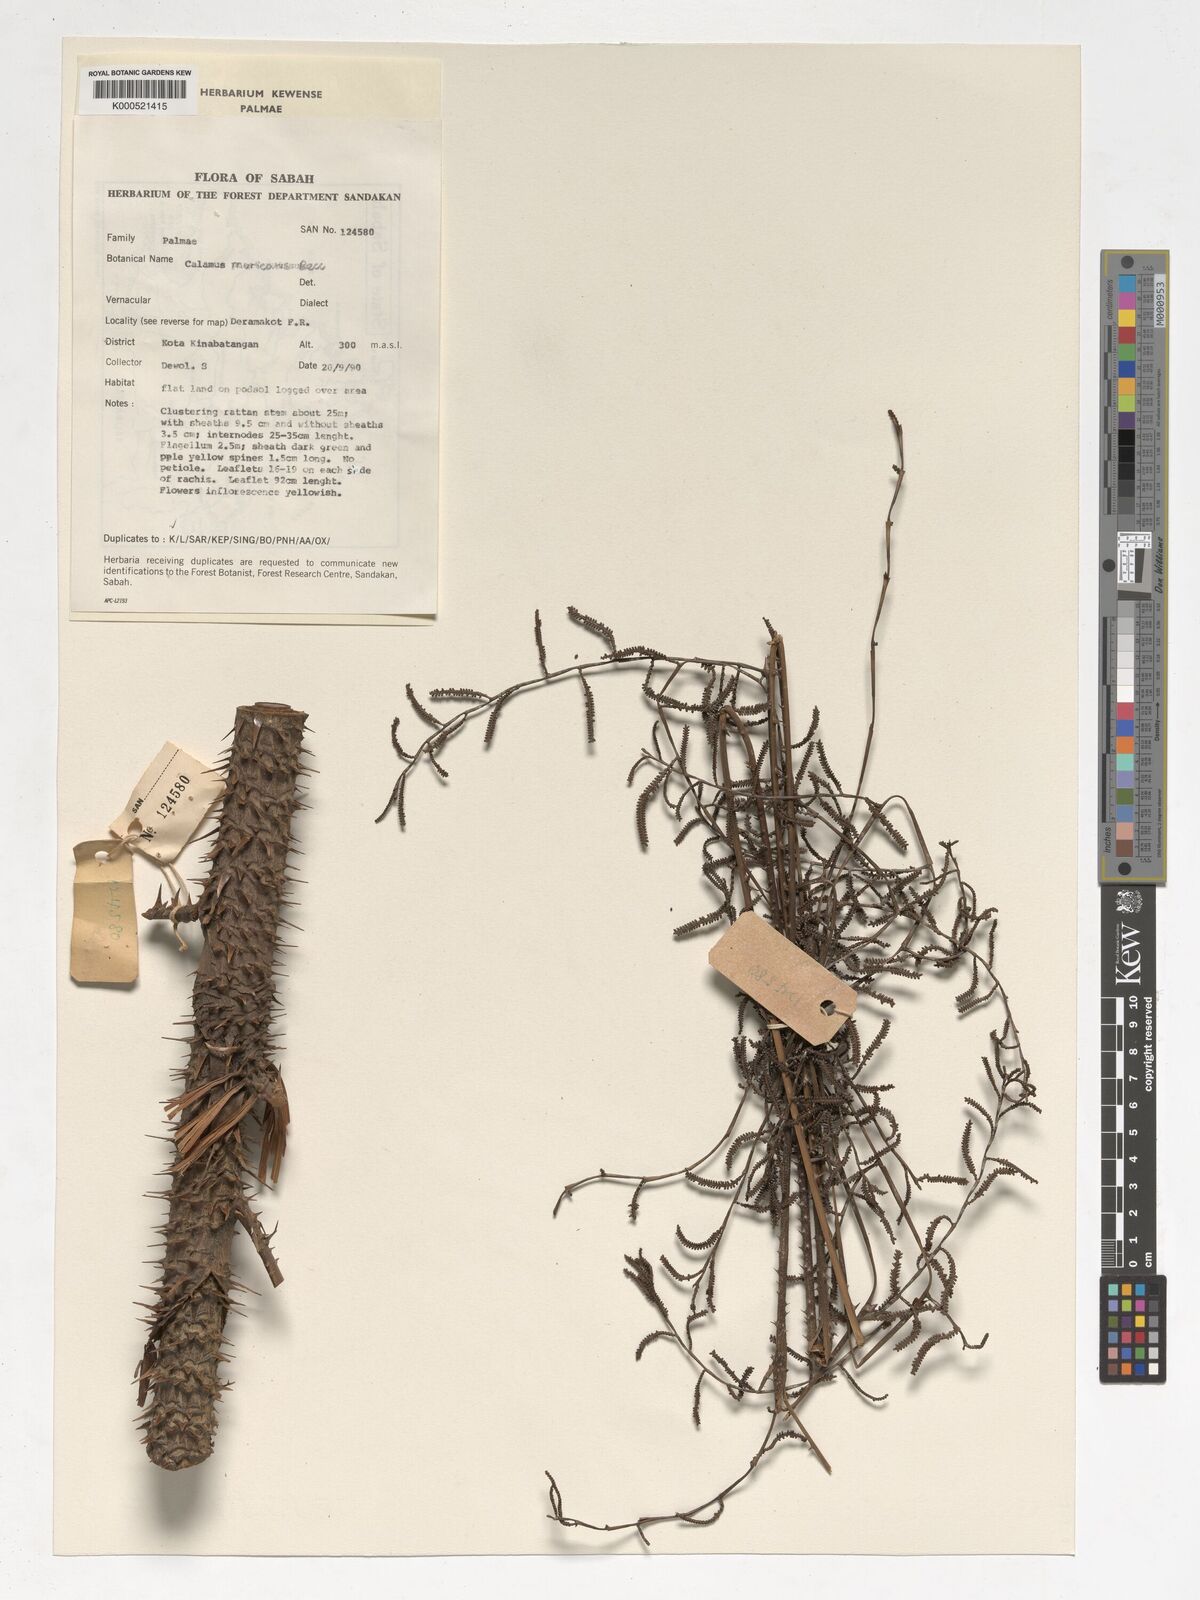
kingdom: Plantae
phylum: Tracheophyta
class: Liliopsida
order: Arecales
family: Arecaceae
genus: Calamus
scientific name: Calamus muricatus
